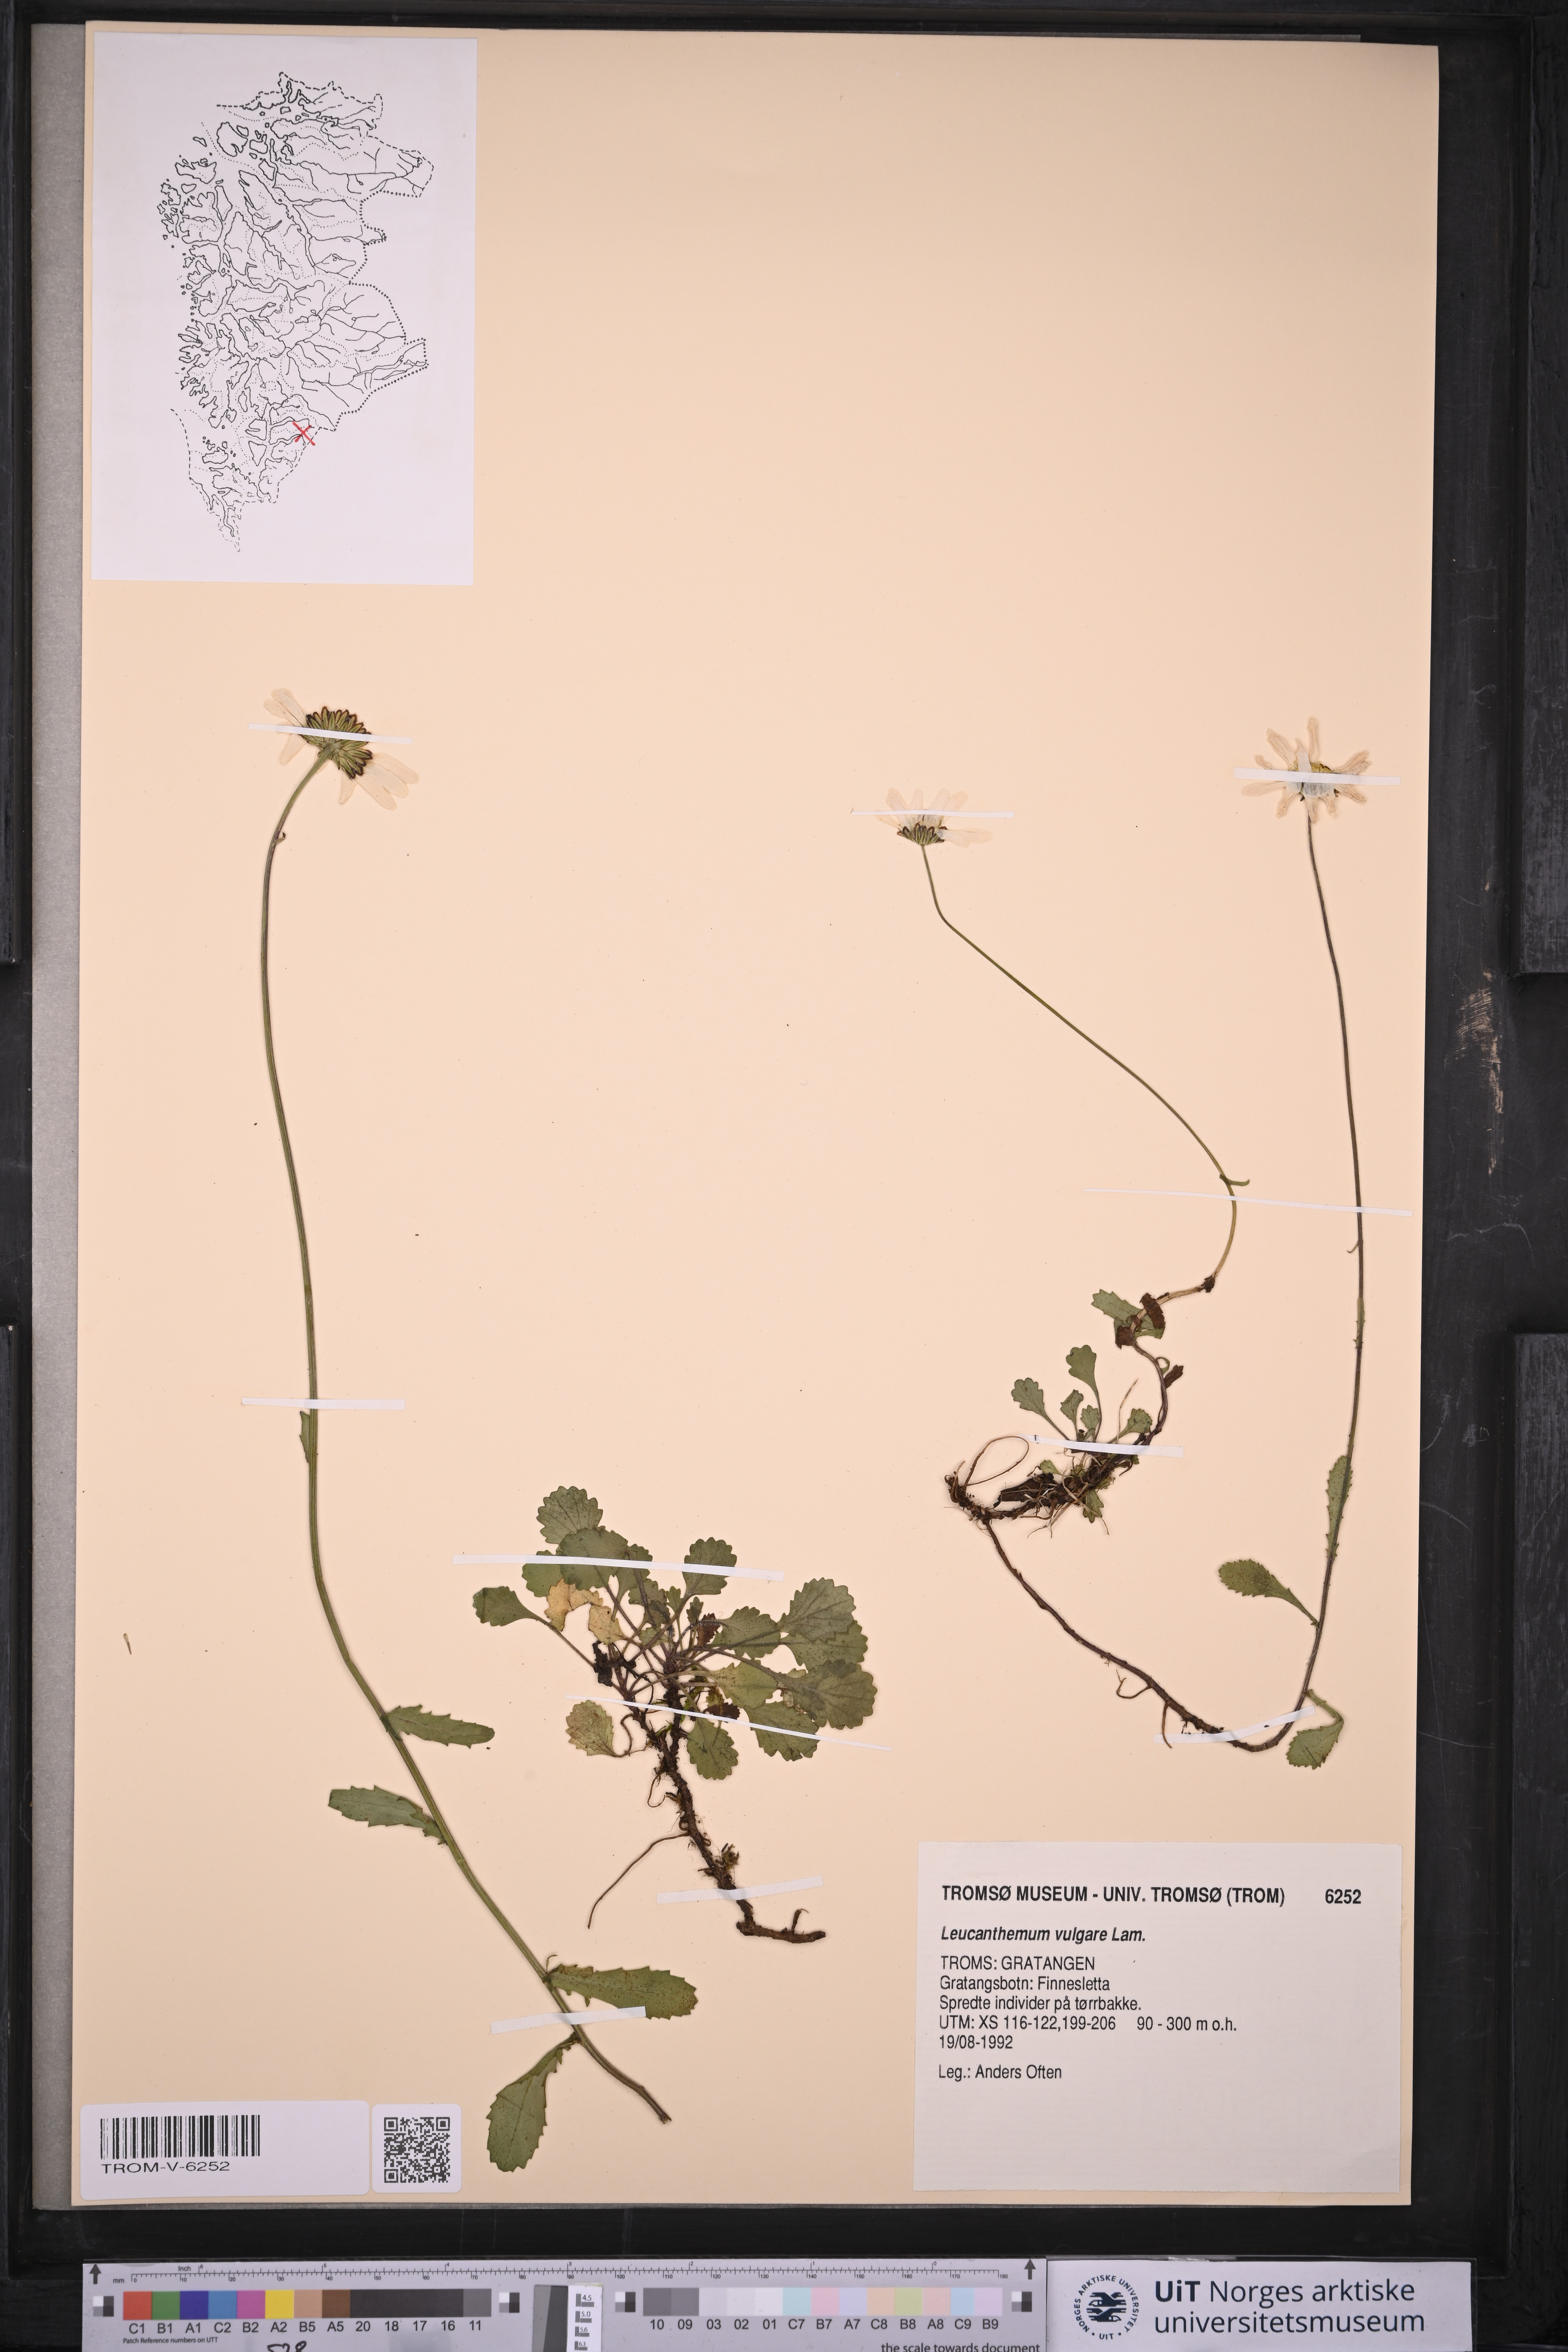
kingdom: Plantae
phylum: Tracheophyta
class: Magnoliopsida
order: Asterales
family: Asteraceae
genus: Leucanthemum
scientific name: Leucanthemum vulgare
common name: Oxeye daisy
